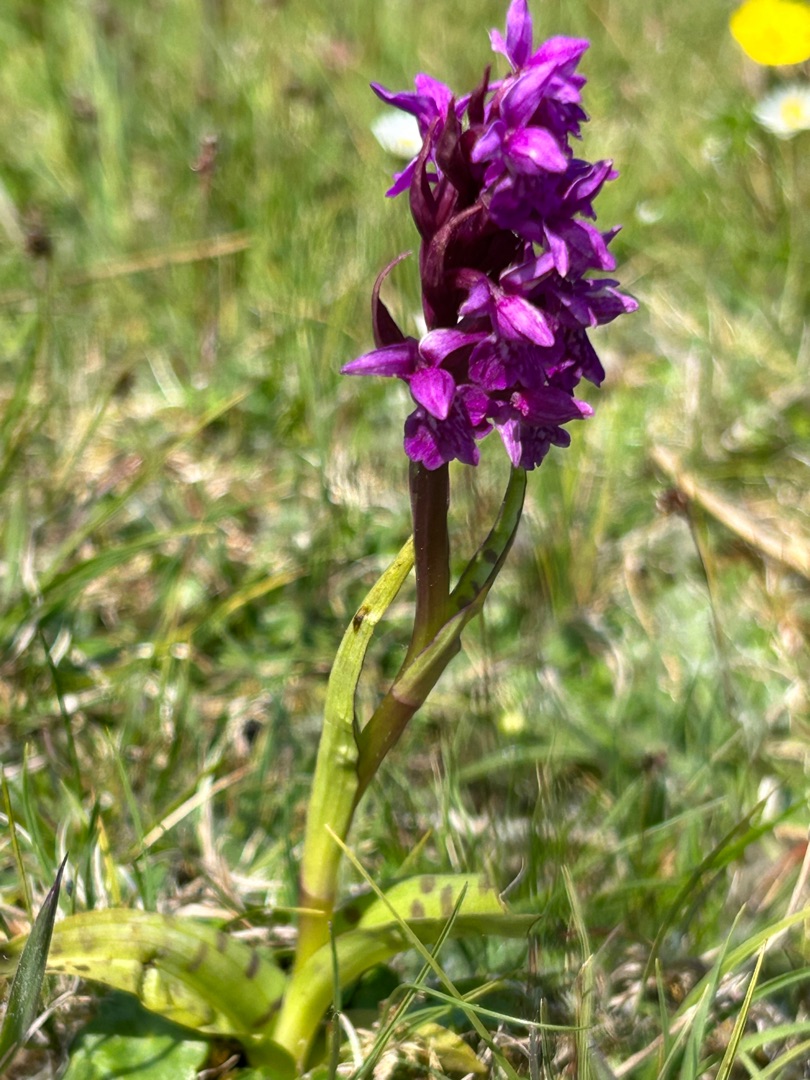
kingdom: Plantae
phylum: Tracheophyta
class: Liliopsida
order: Asparagales
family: Orchidaceae
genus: Dactylorhiza
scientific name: Dactylorhiza majalis
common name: Maj-gøgeurt
